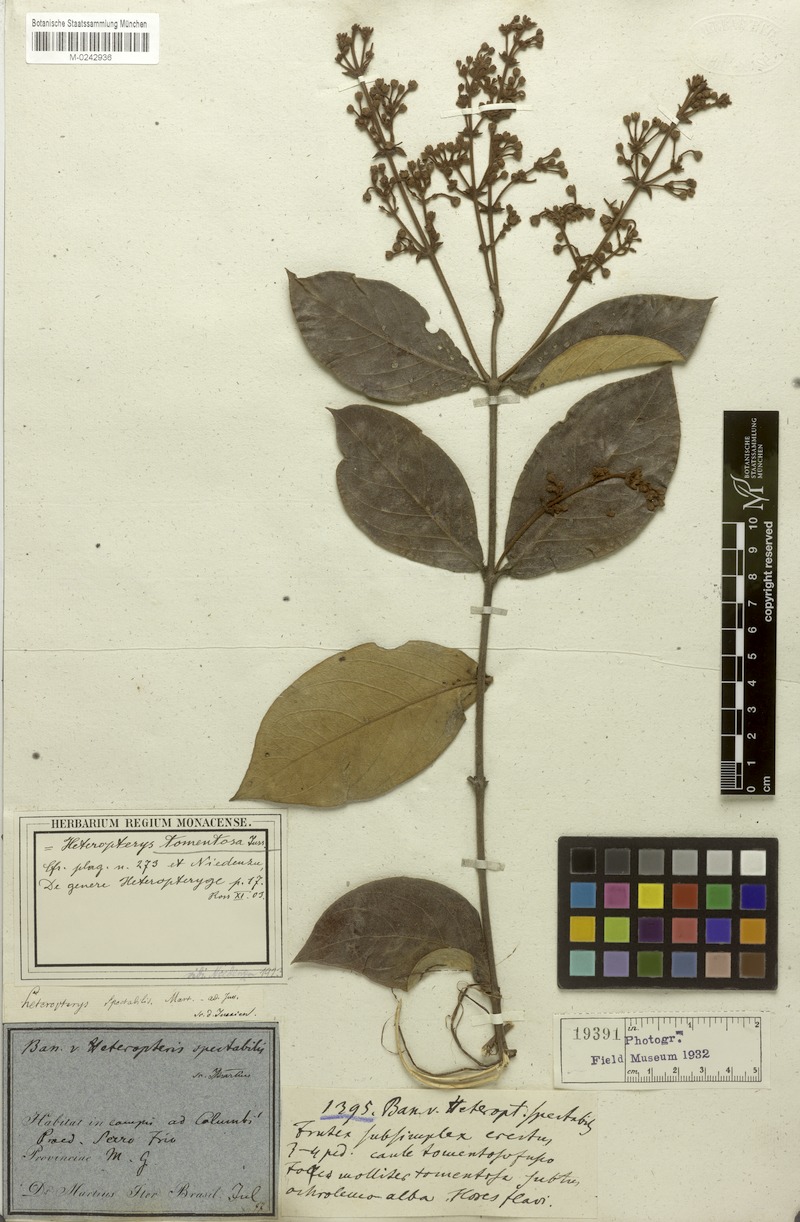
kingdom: Plantae
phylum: Tracheophyta
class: Magnoliopsida
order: Malpighiales
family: Malpighiaceae
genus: Heteropterys
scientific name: Heteropterys tomentosa
